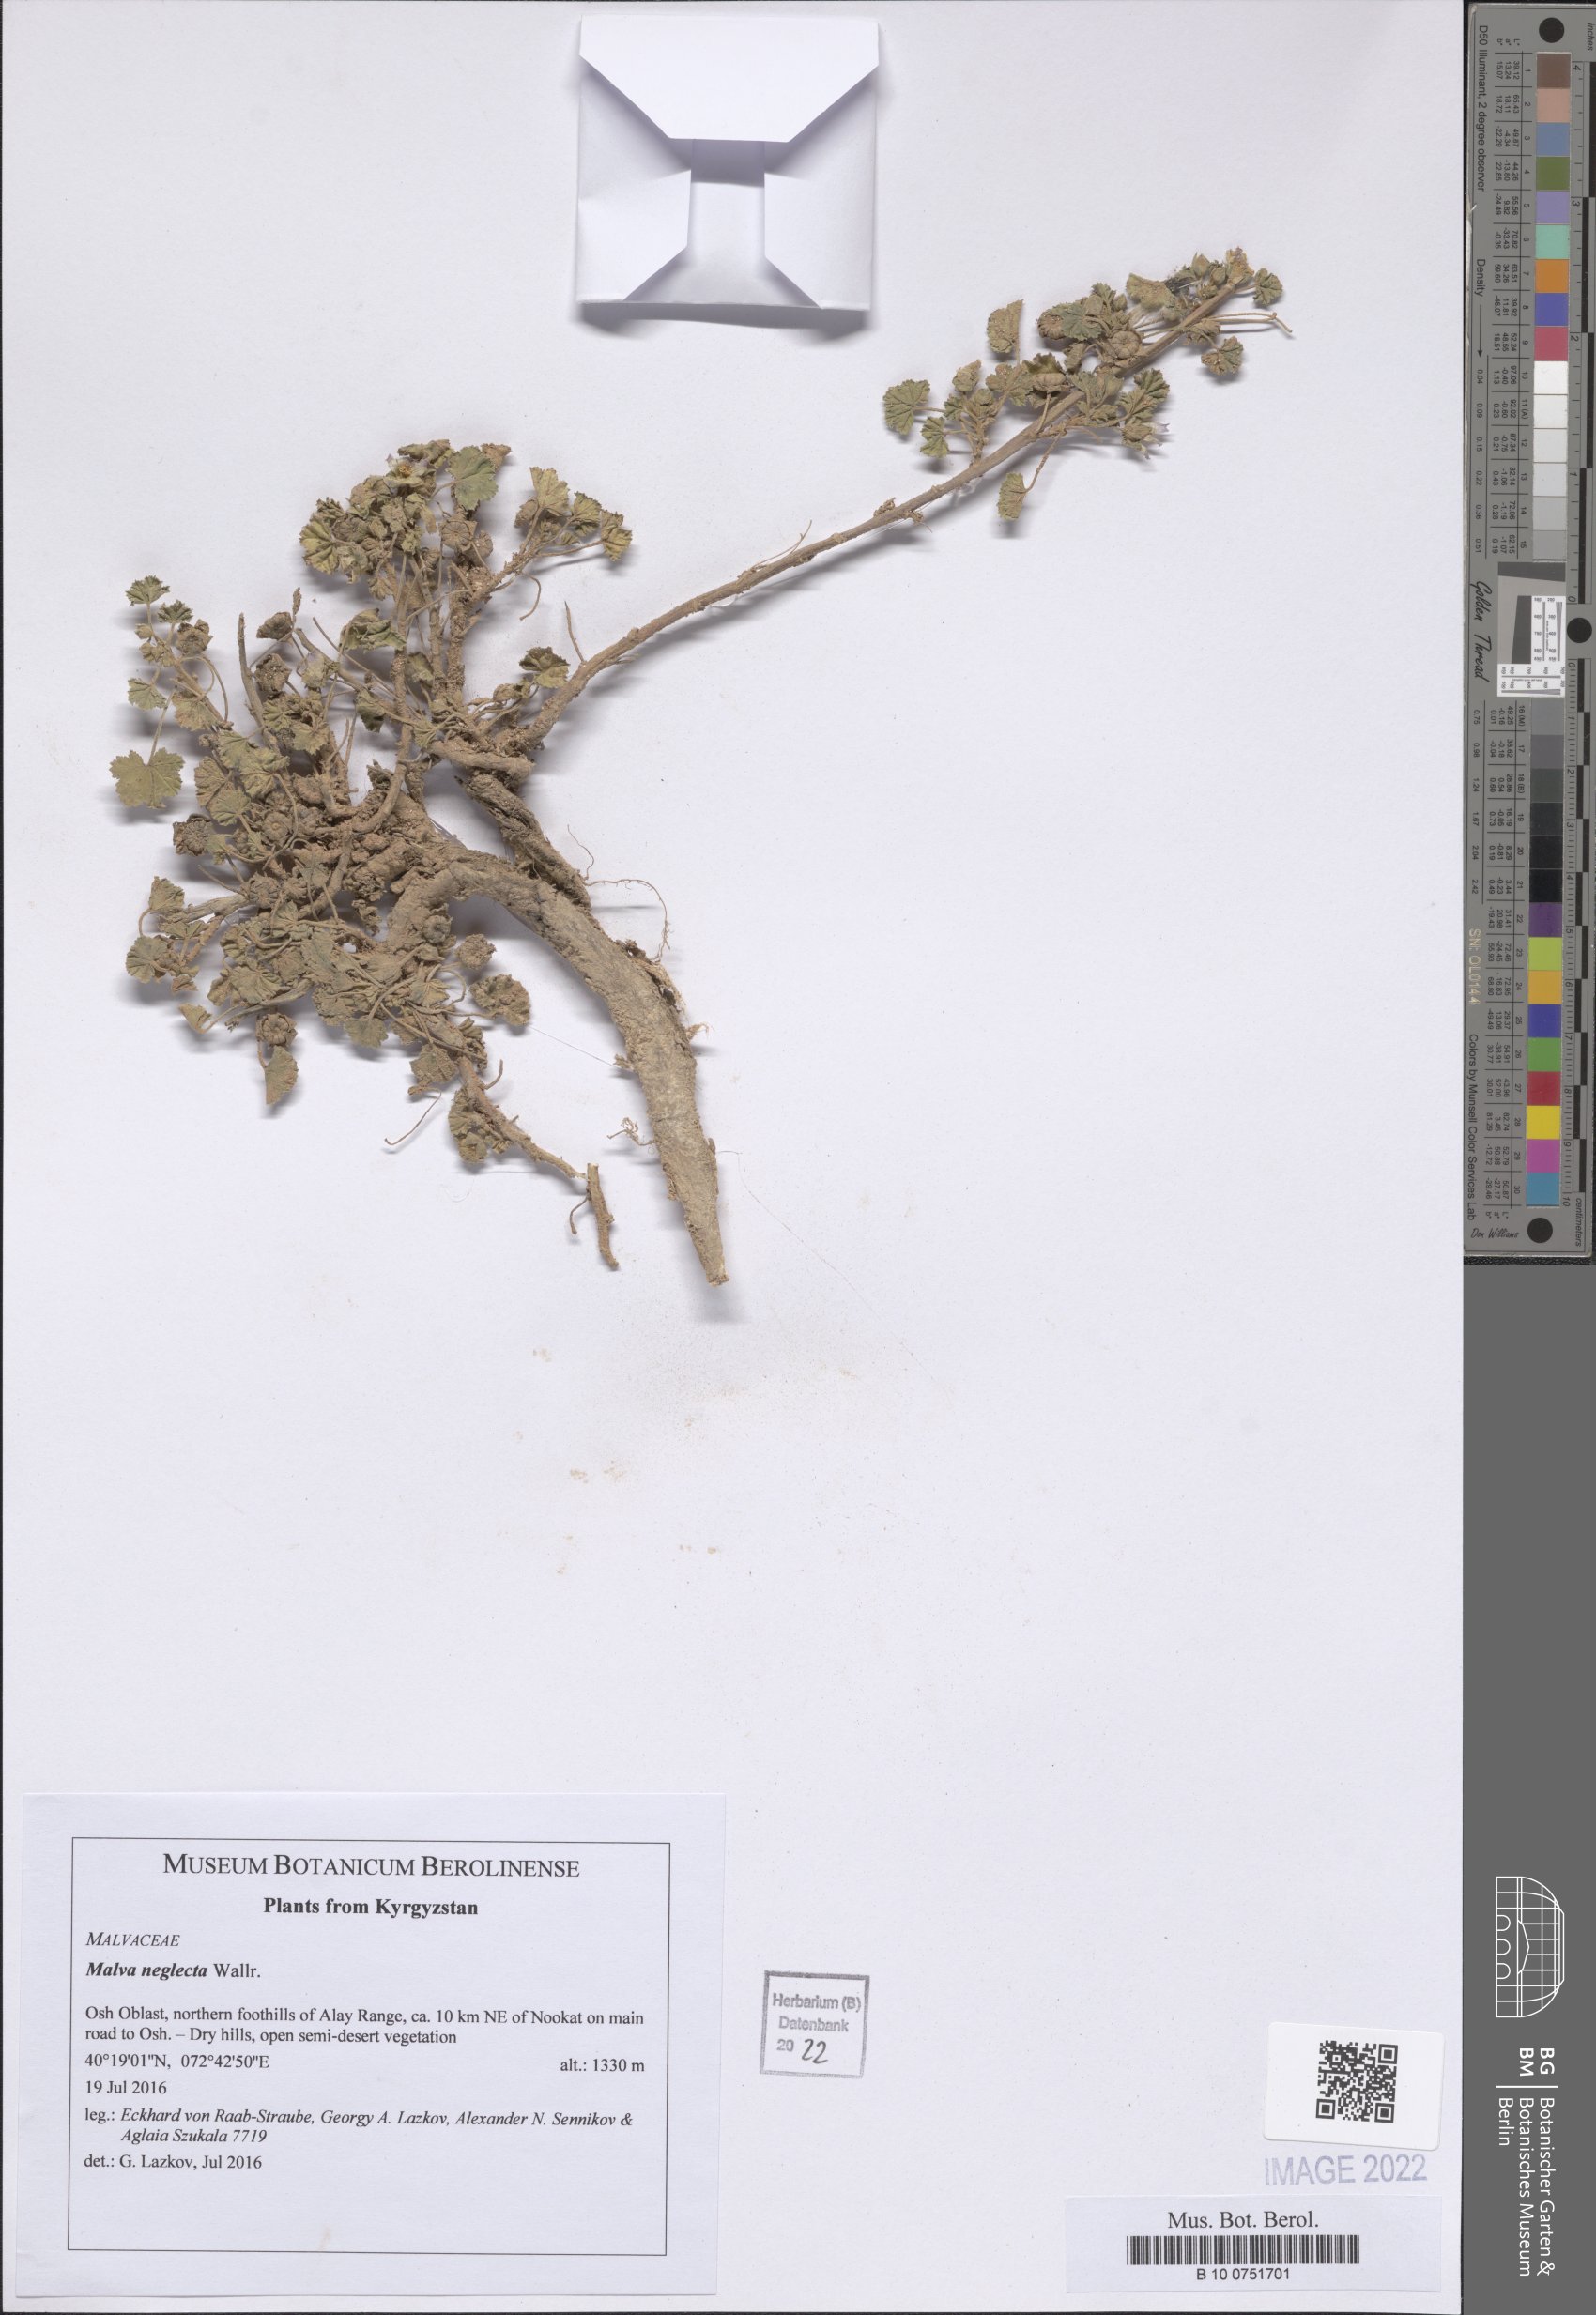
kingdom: Plantae
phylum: Tracheophyta
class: Magnoliopsida
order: Malvales
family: Malvaceae
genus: Malva
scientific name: Malva neglecta
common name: Common mallow
